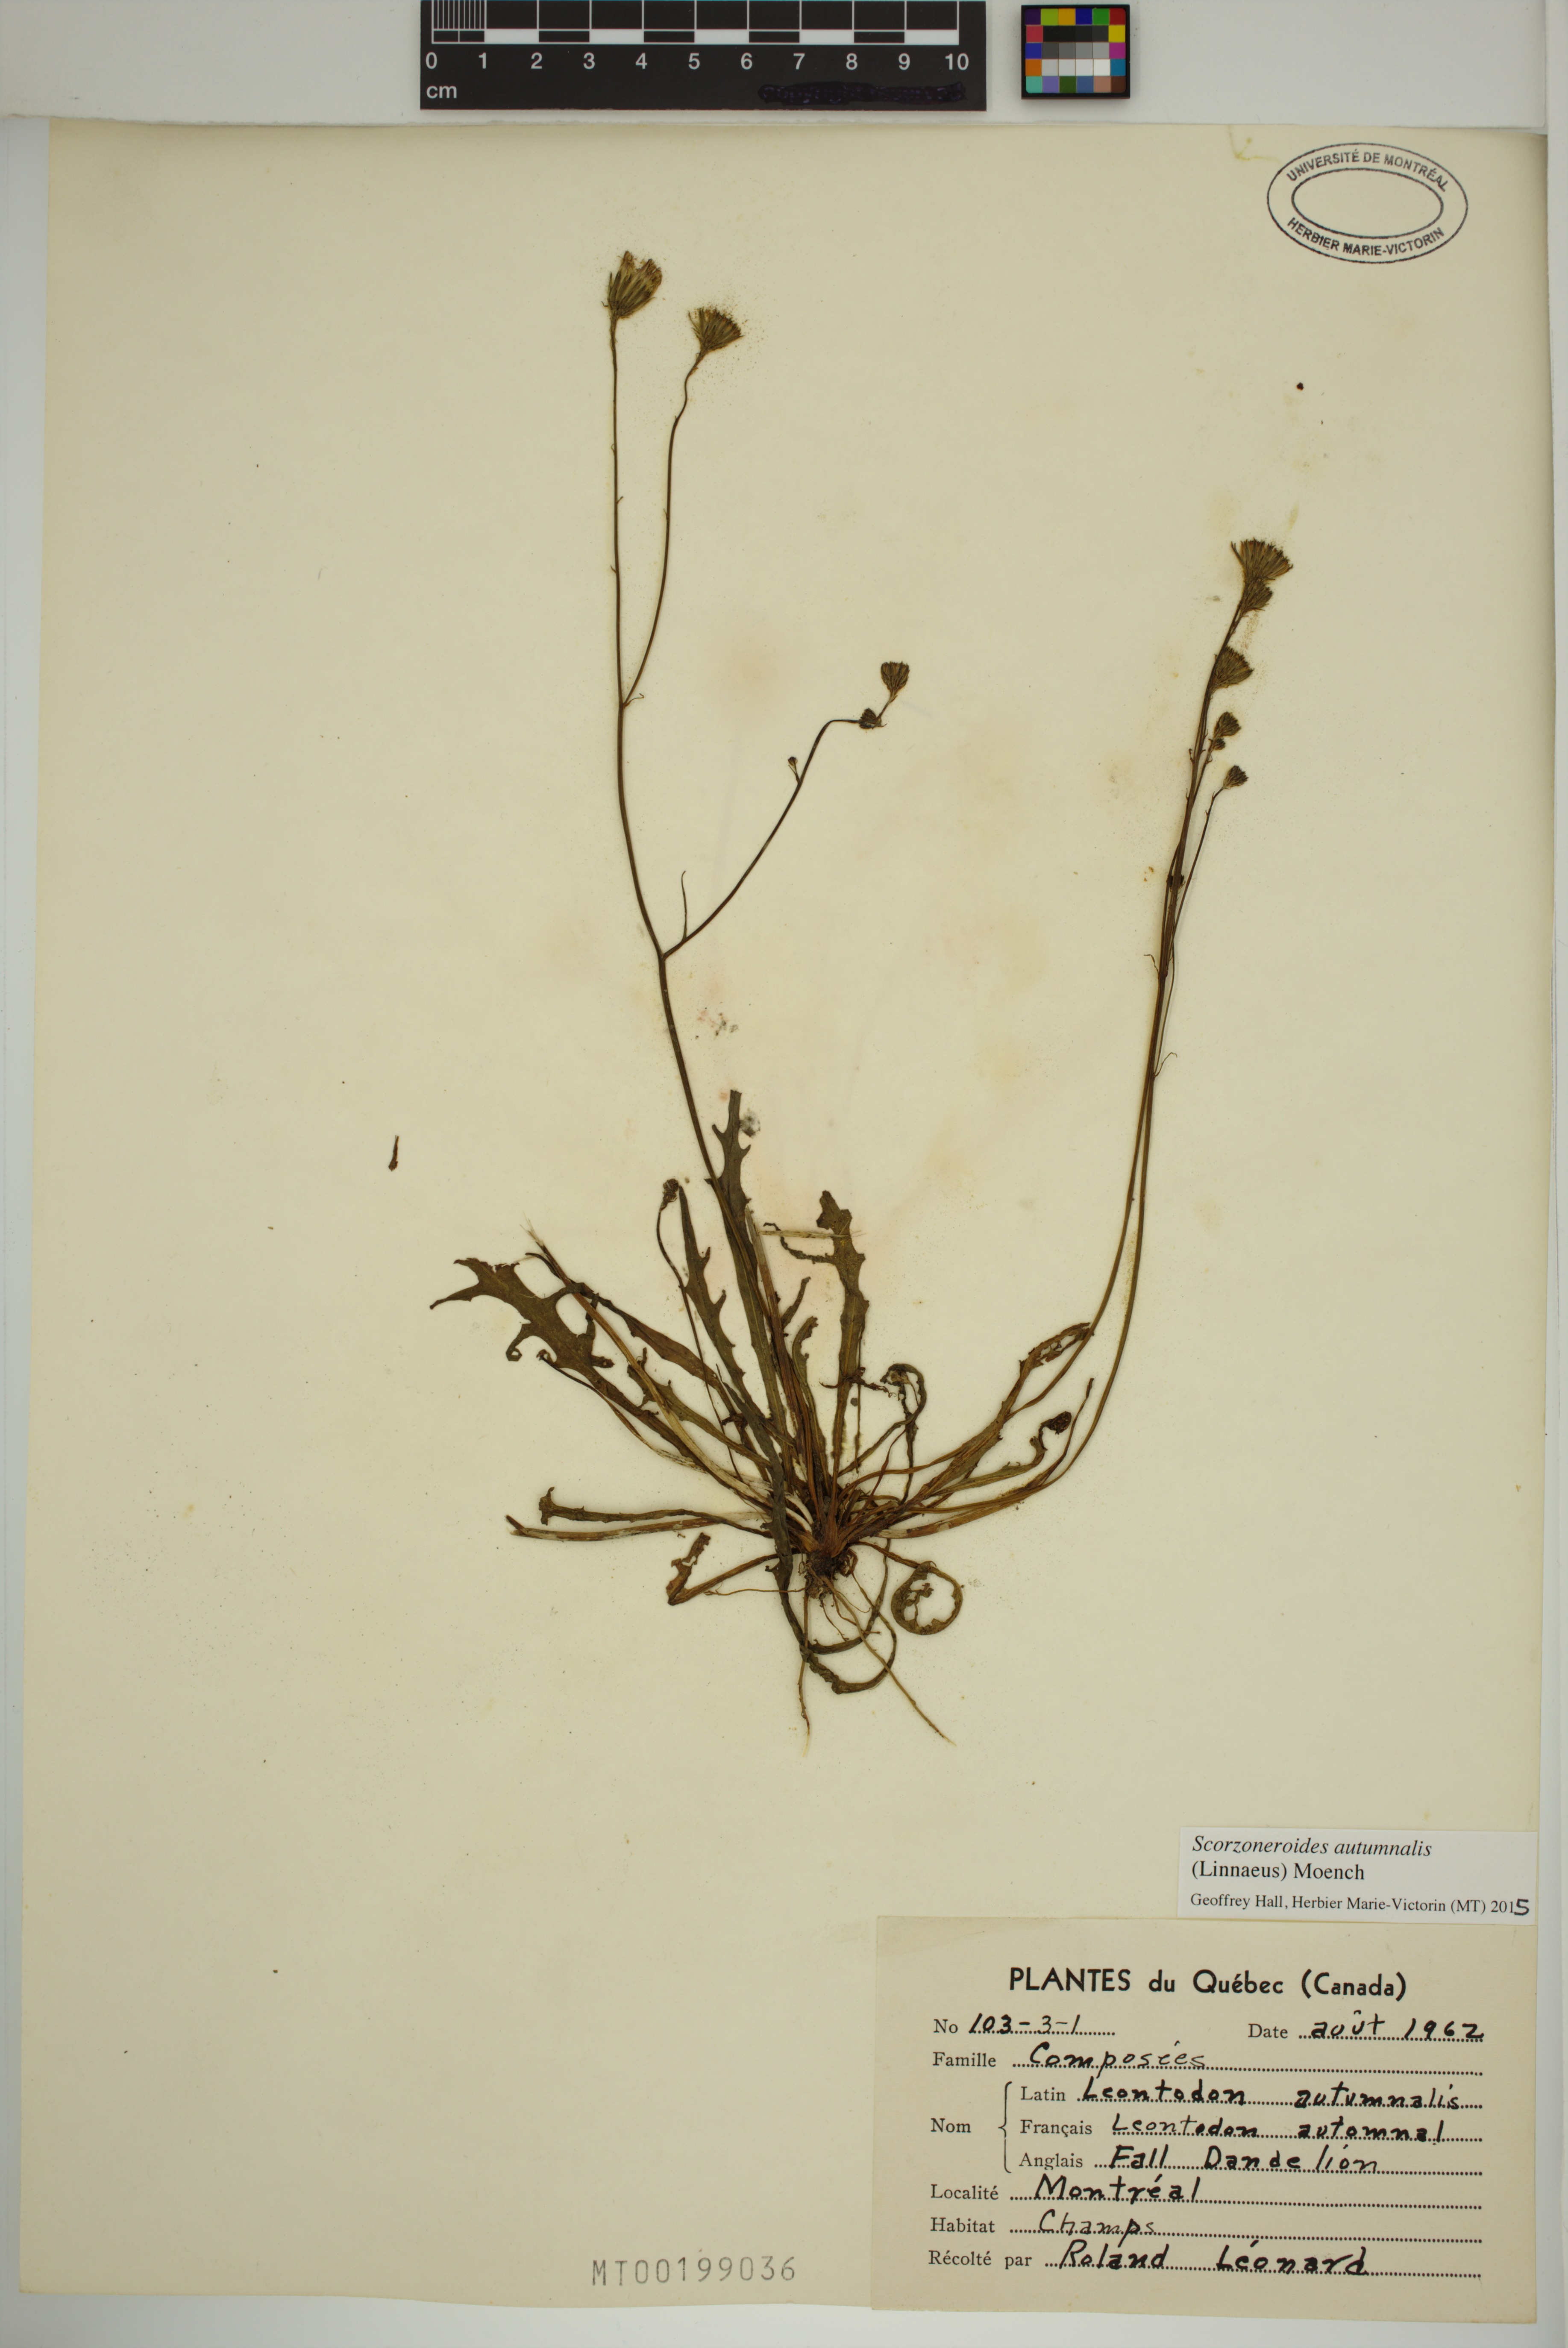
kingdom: Plantae
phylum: Tracheophyta
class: Magnoliopsida
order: Asterales
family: Asteraceae
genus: Scorzoneroides
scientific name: Scorzoneroides autumnalis
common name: Autumn hawkbit
